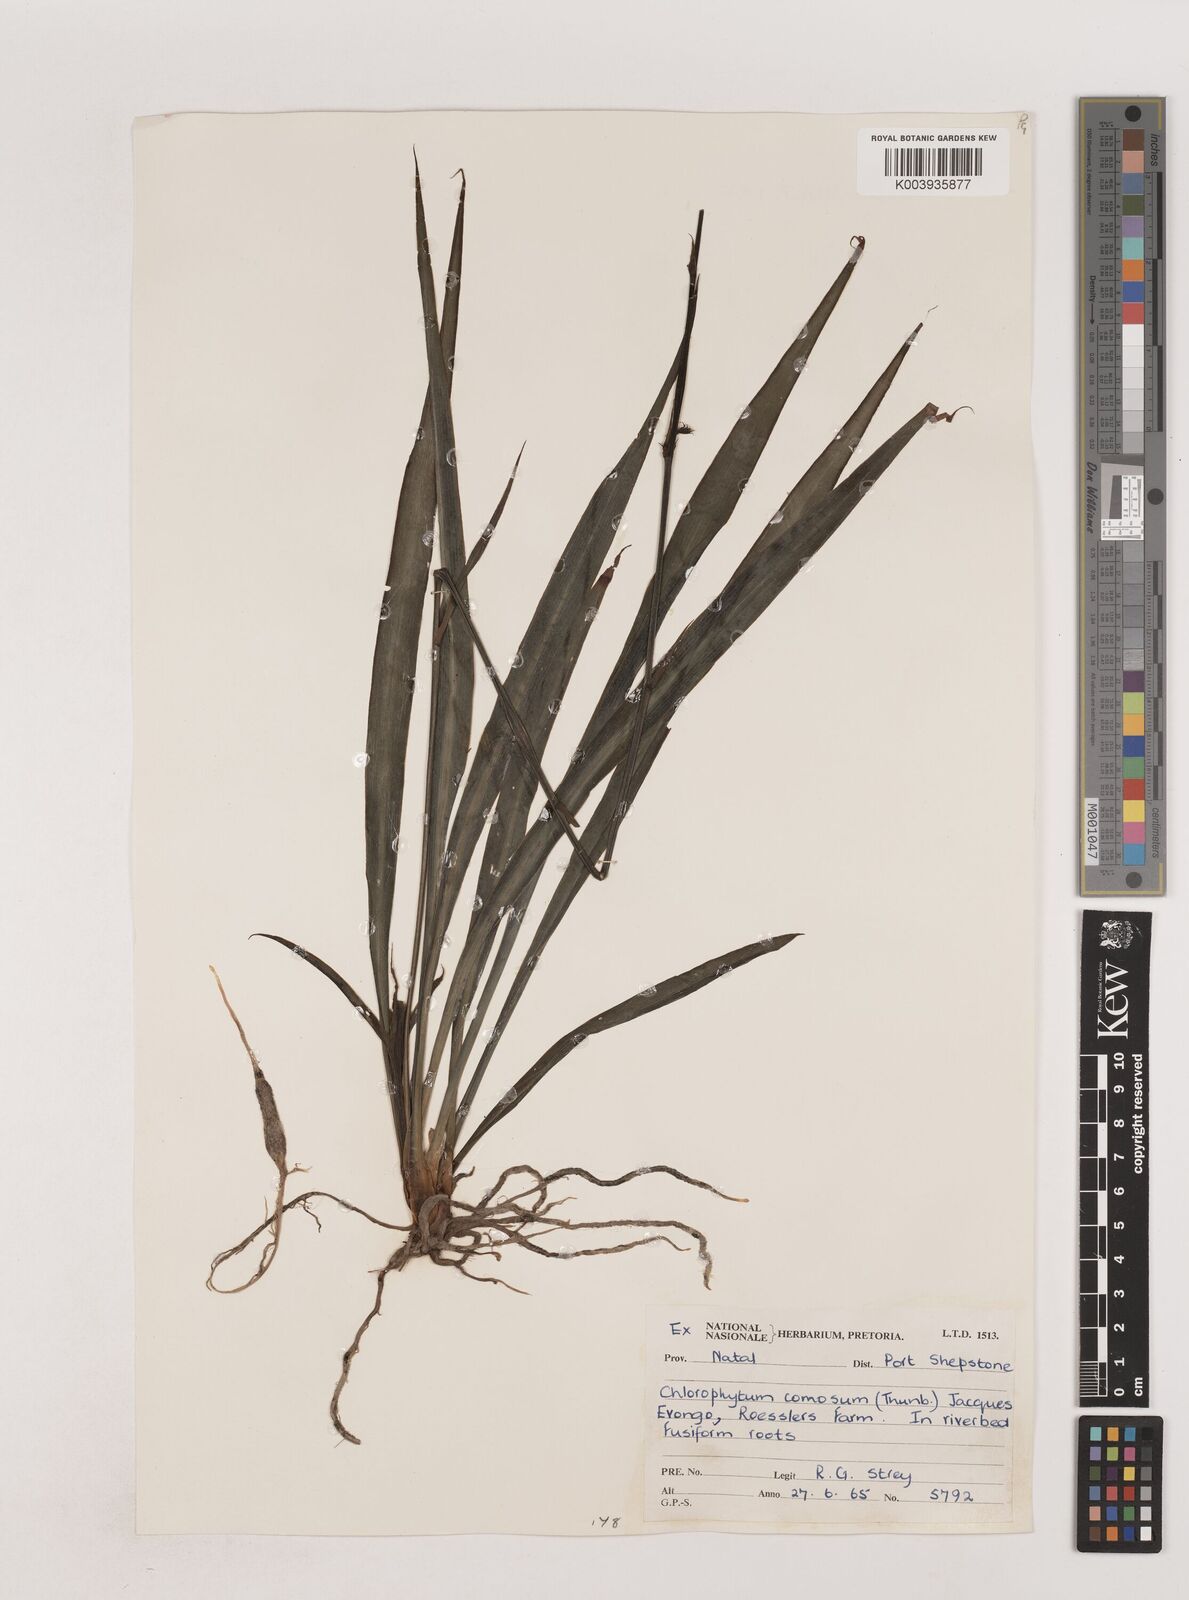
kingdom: Plantae
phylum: Tracheophyta
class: Liliopsida
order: Asparagales
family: Asparagaceae
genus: Chlorophytum
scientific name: Chlorophytum comosum
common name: Spider plant
